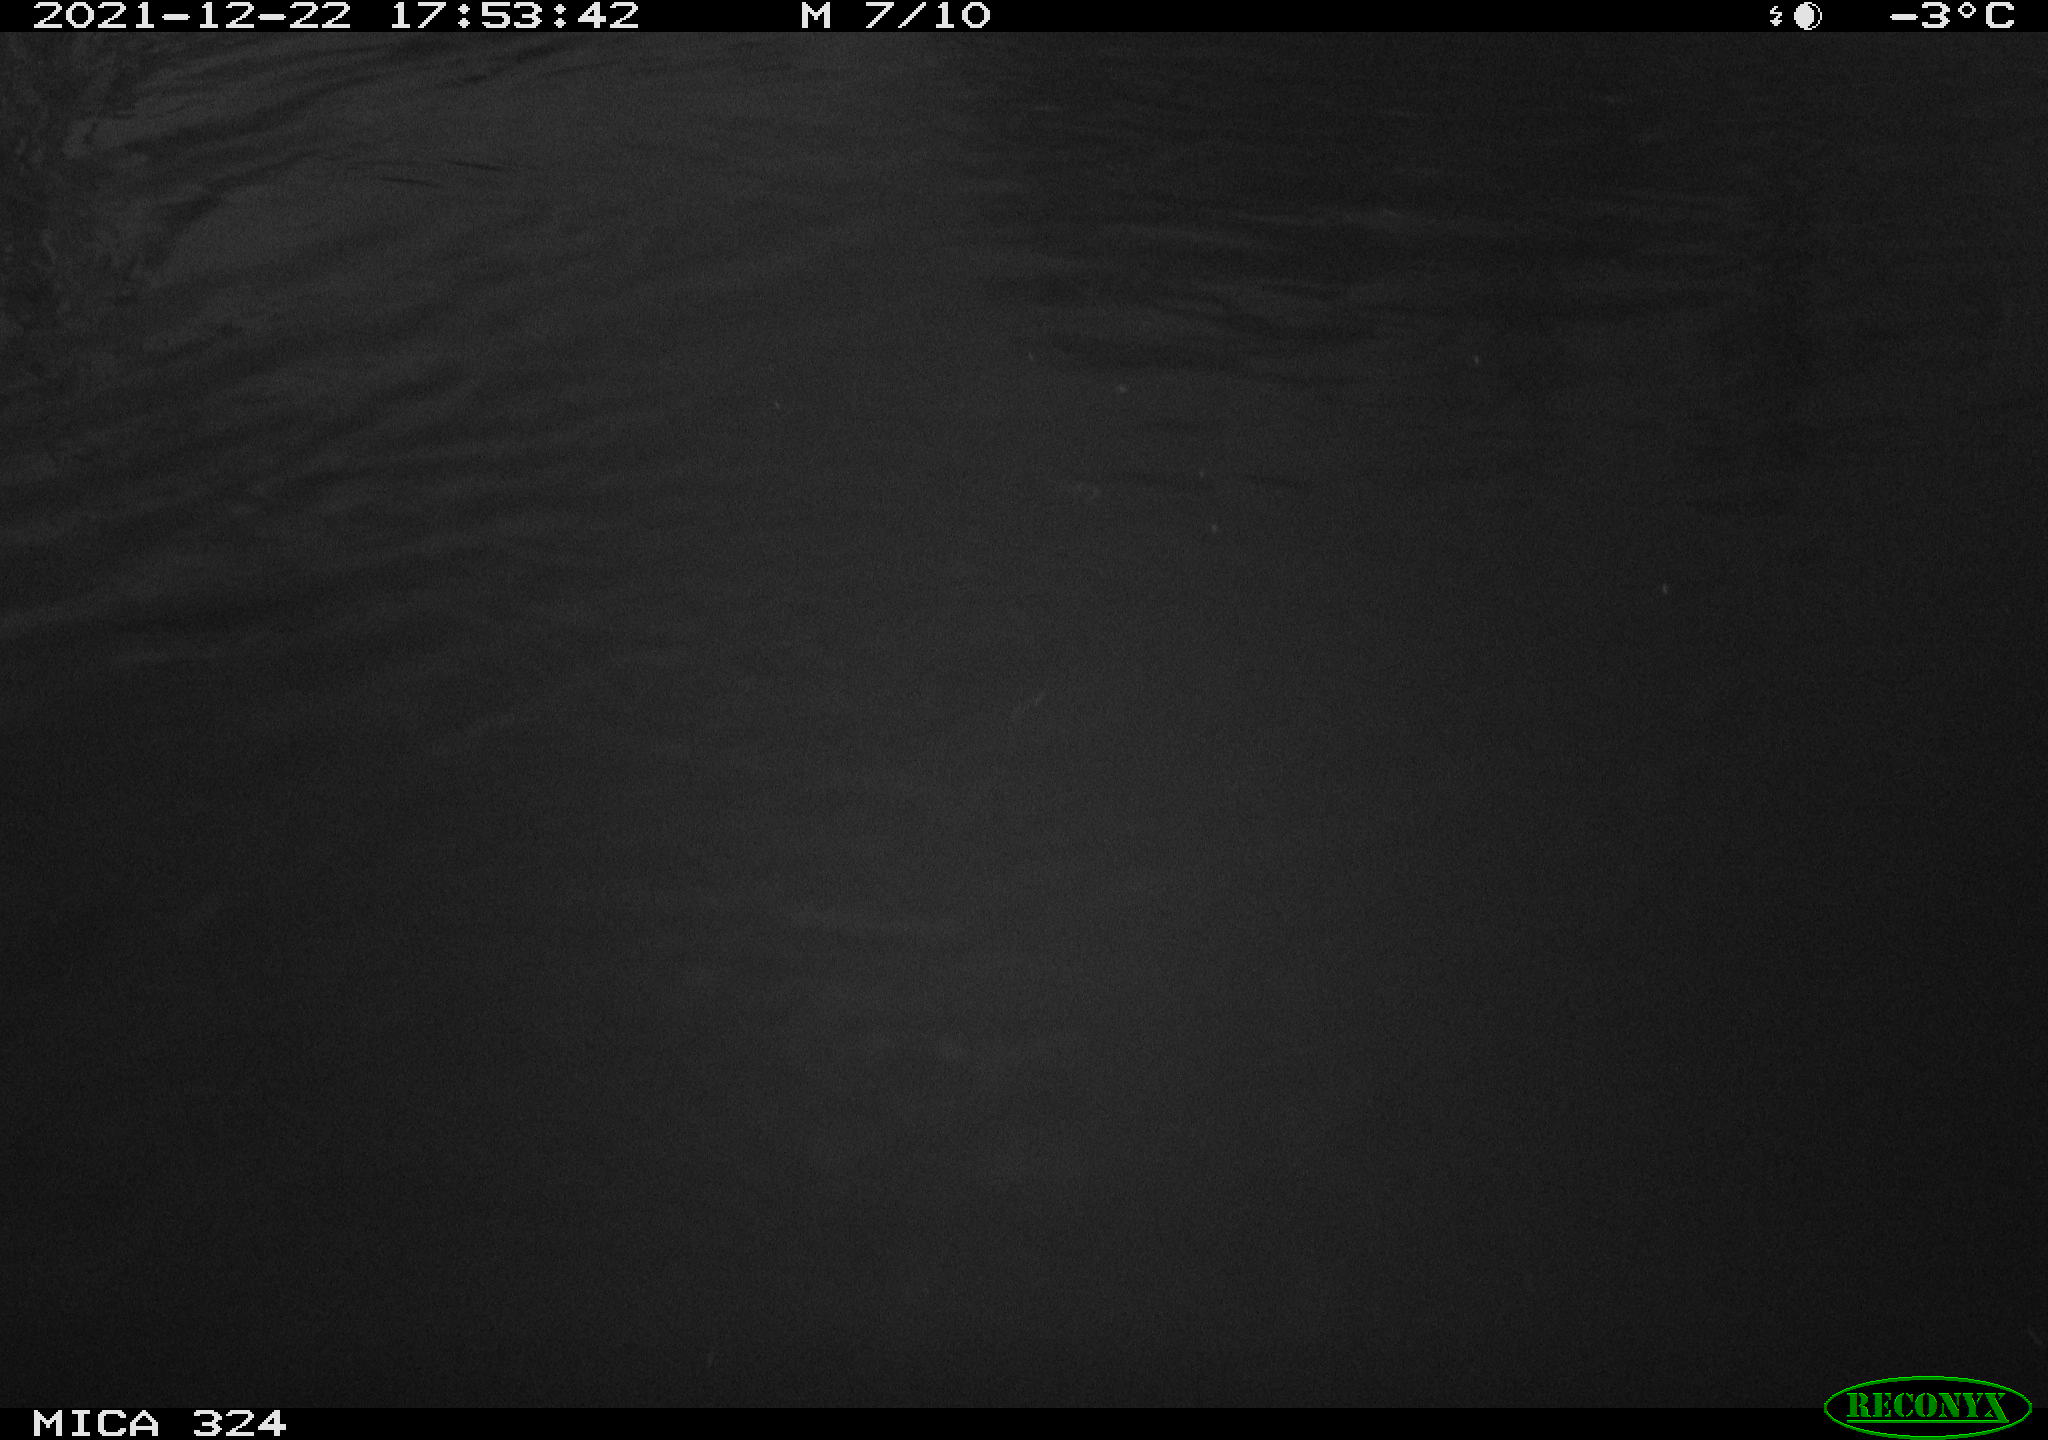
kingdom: Animalia
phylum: Chordata
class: Mammalia
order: Rodentia
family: Cricetidae
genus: Ondatra
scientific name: Ondatra zibethicus
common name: Muskrat
